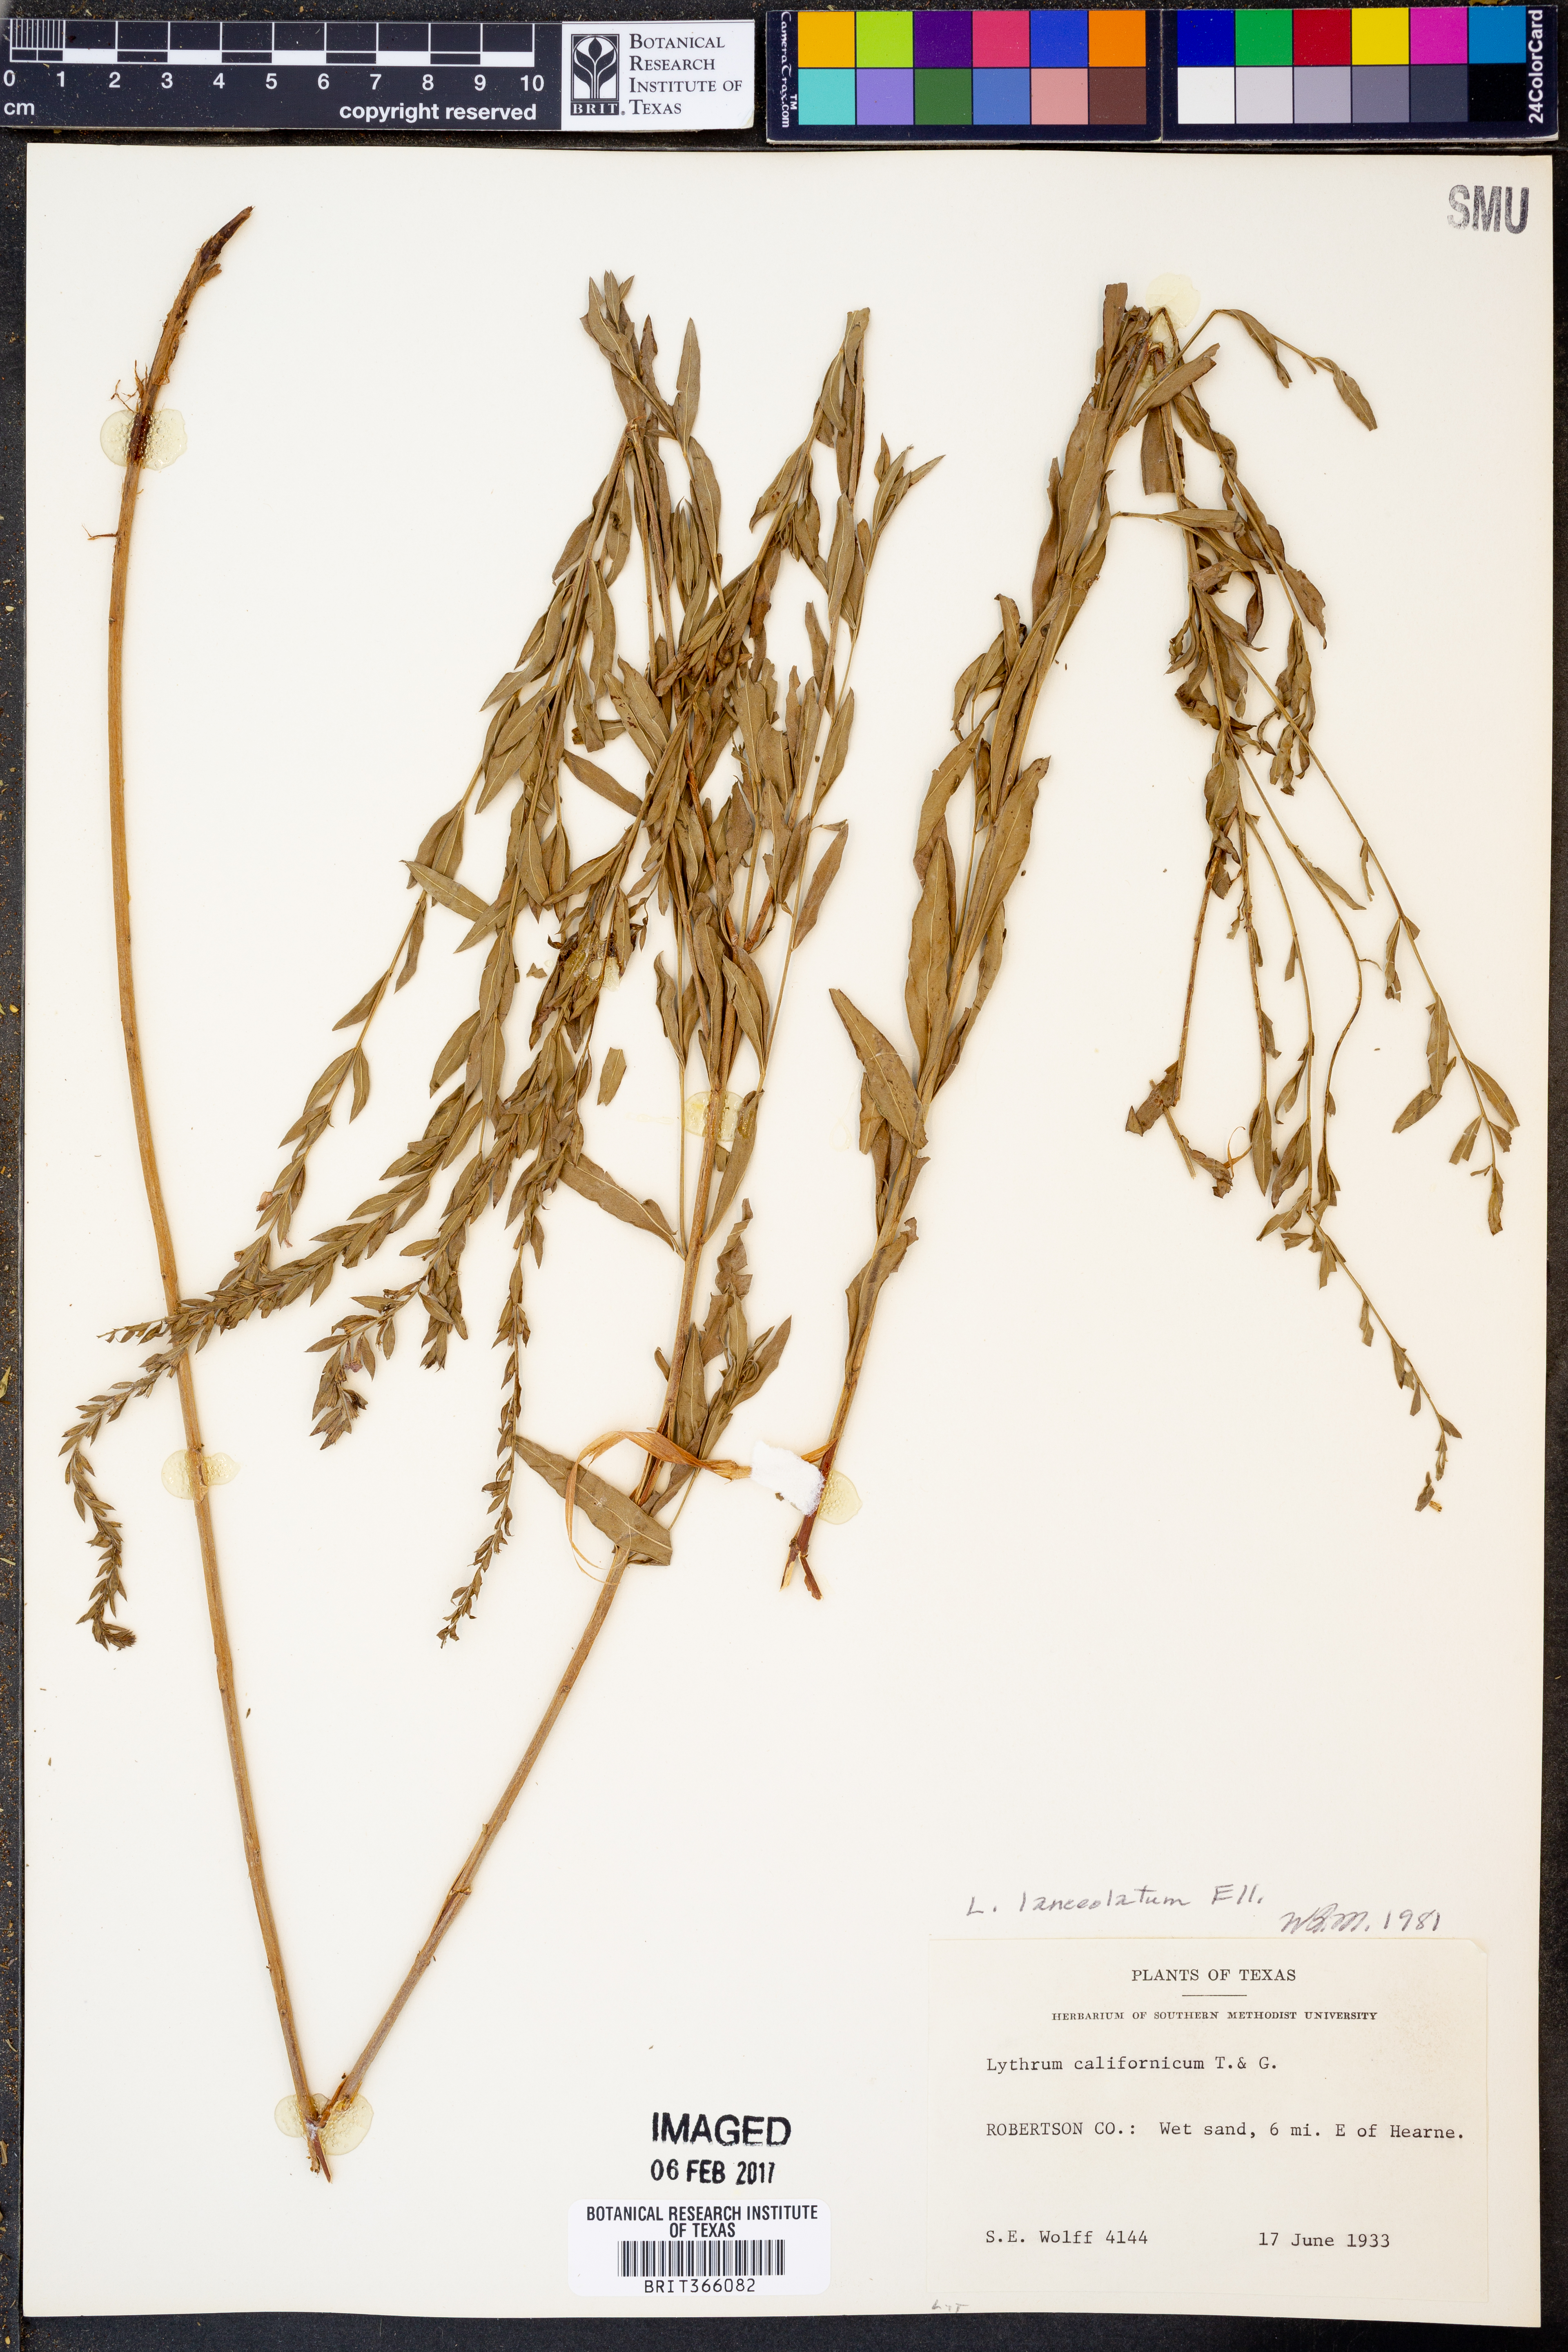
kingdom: Plantae
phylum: Tracheophyta
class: Magnoliopsida
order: Myrtales
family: Lythraceae
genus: Lythrum
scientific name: Lythrum alatum
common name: Winged loosestrife
